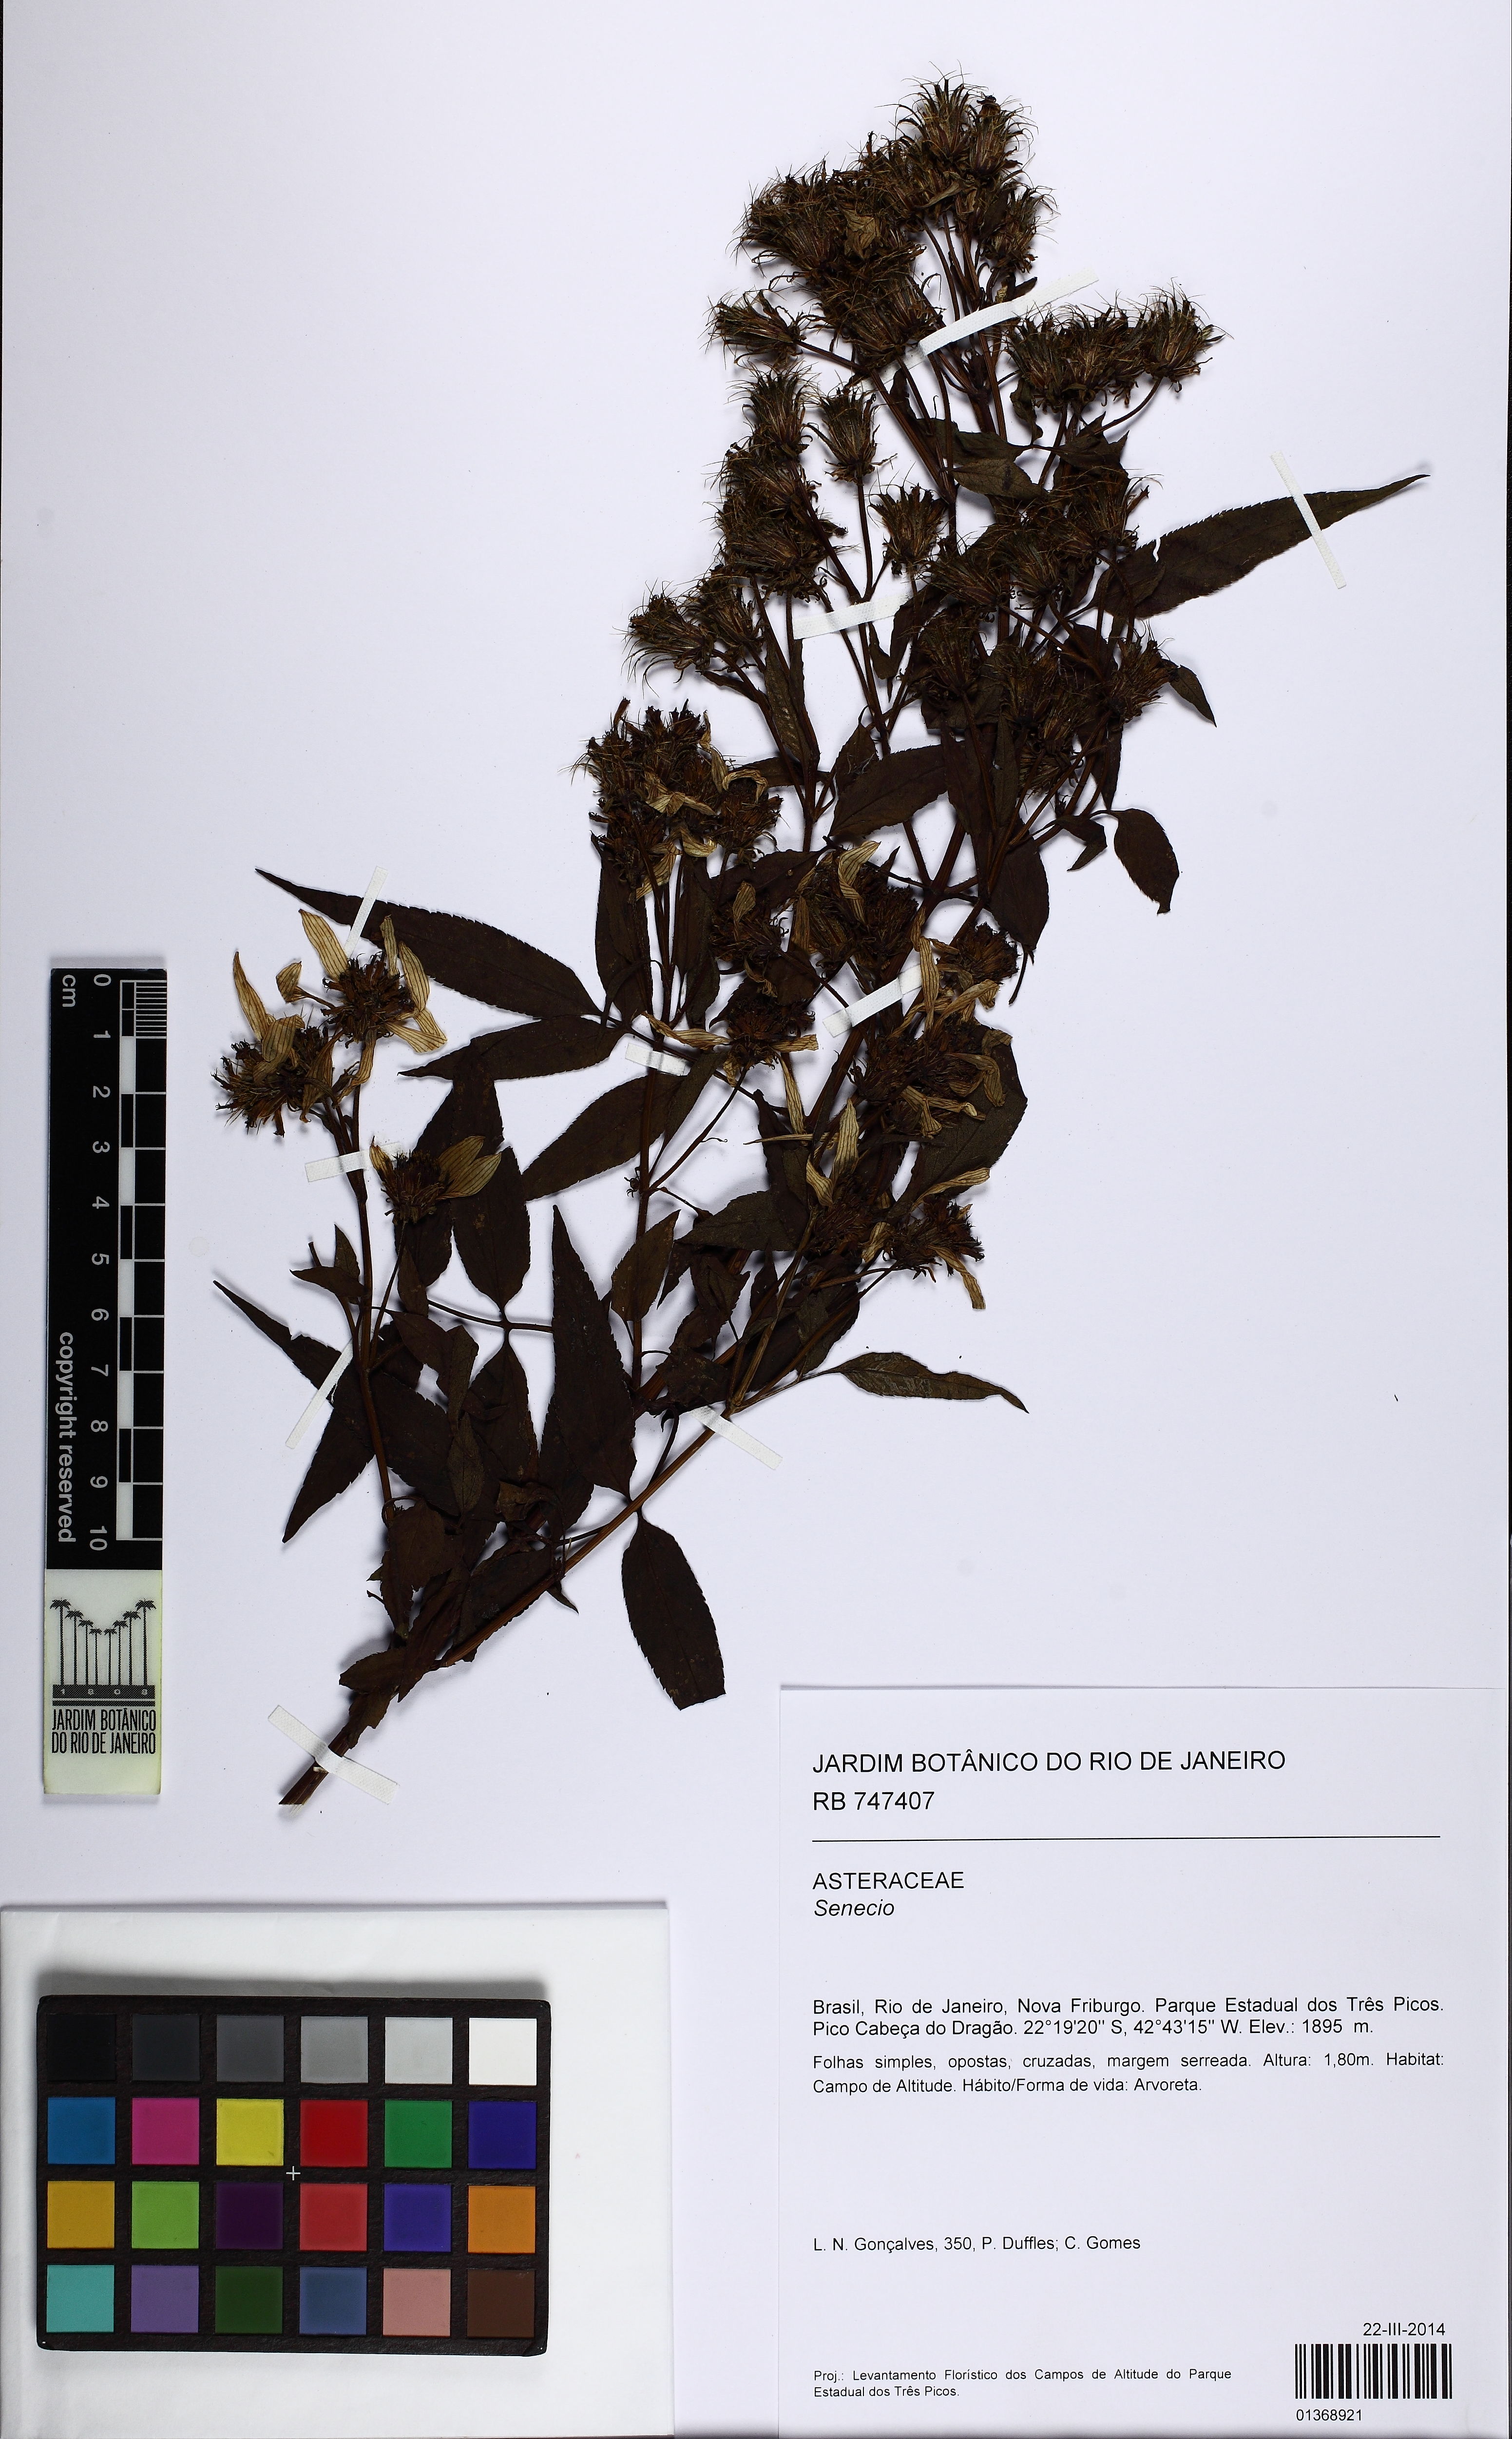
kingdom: Plantae
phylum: Tracheophyta
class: Magnoliopsida
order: Asterales
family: Asteraceae
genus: Senecio
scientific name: Senecio
